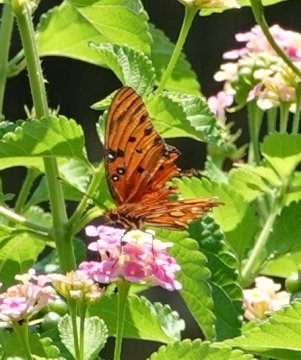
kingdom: Animalia
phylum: Arthropoda
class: Insecta
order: Lepidoptera
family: Nymphalidae
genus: Dione
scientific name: Dione vanillae
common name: Gulf Fritillary
